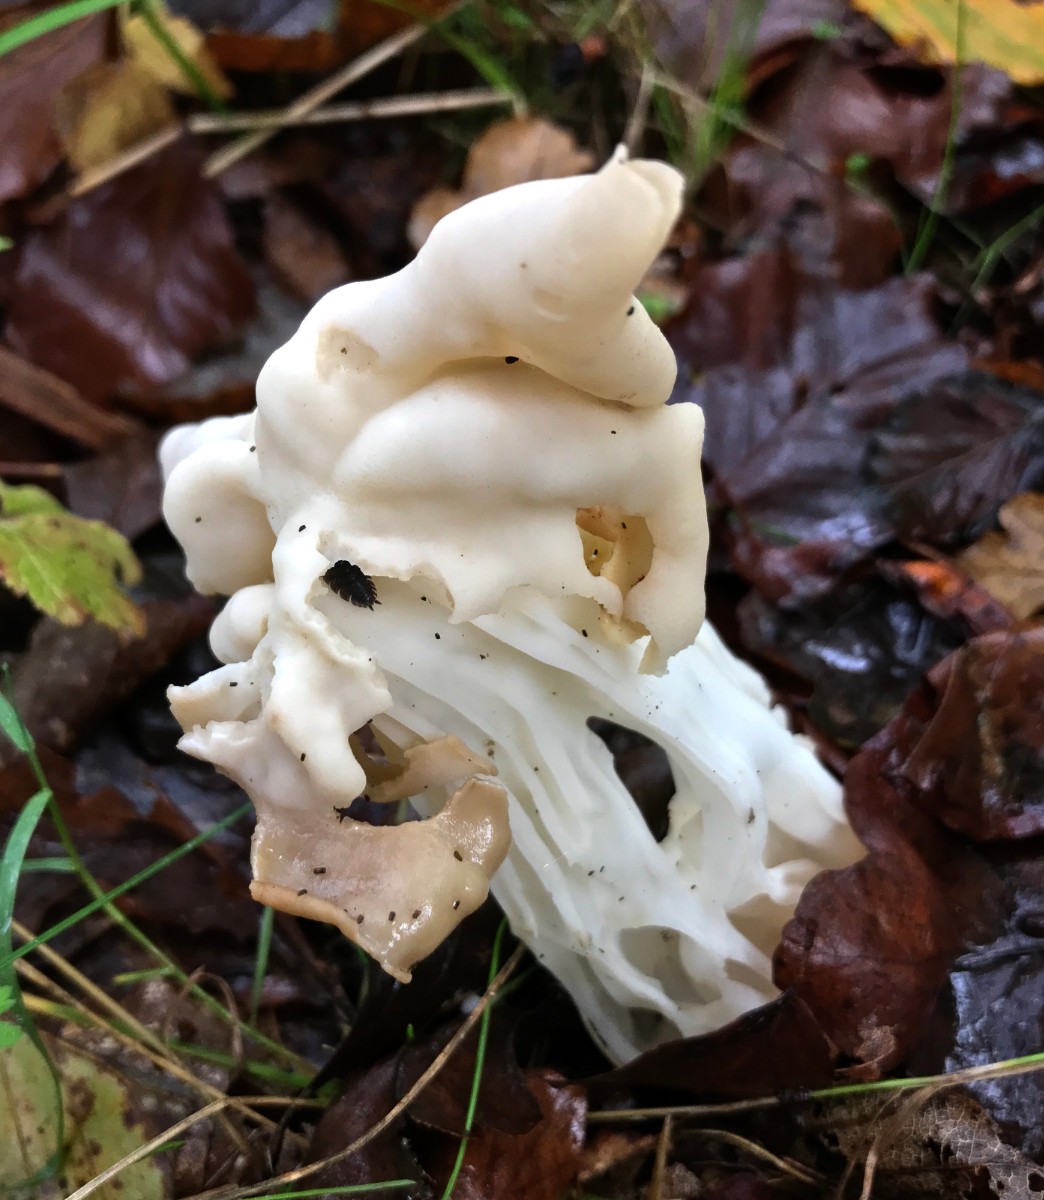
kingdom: Fungi
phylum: Ascomycota
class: Pezizomycetes
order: Pezizales
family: Helvellaceae
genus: Helvella
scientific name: Helvella crispa
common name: kruset foldhat
